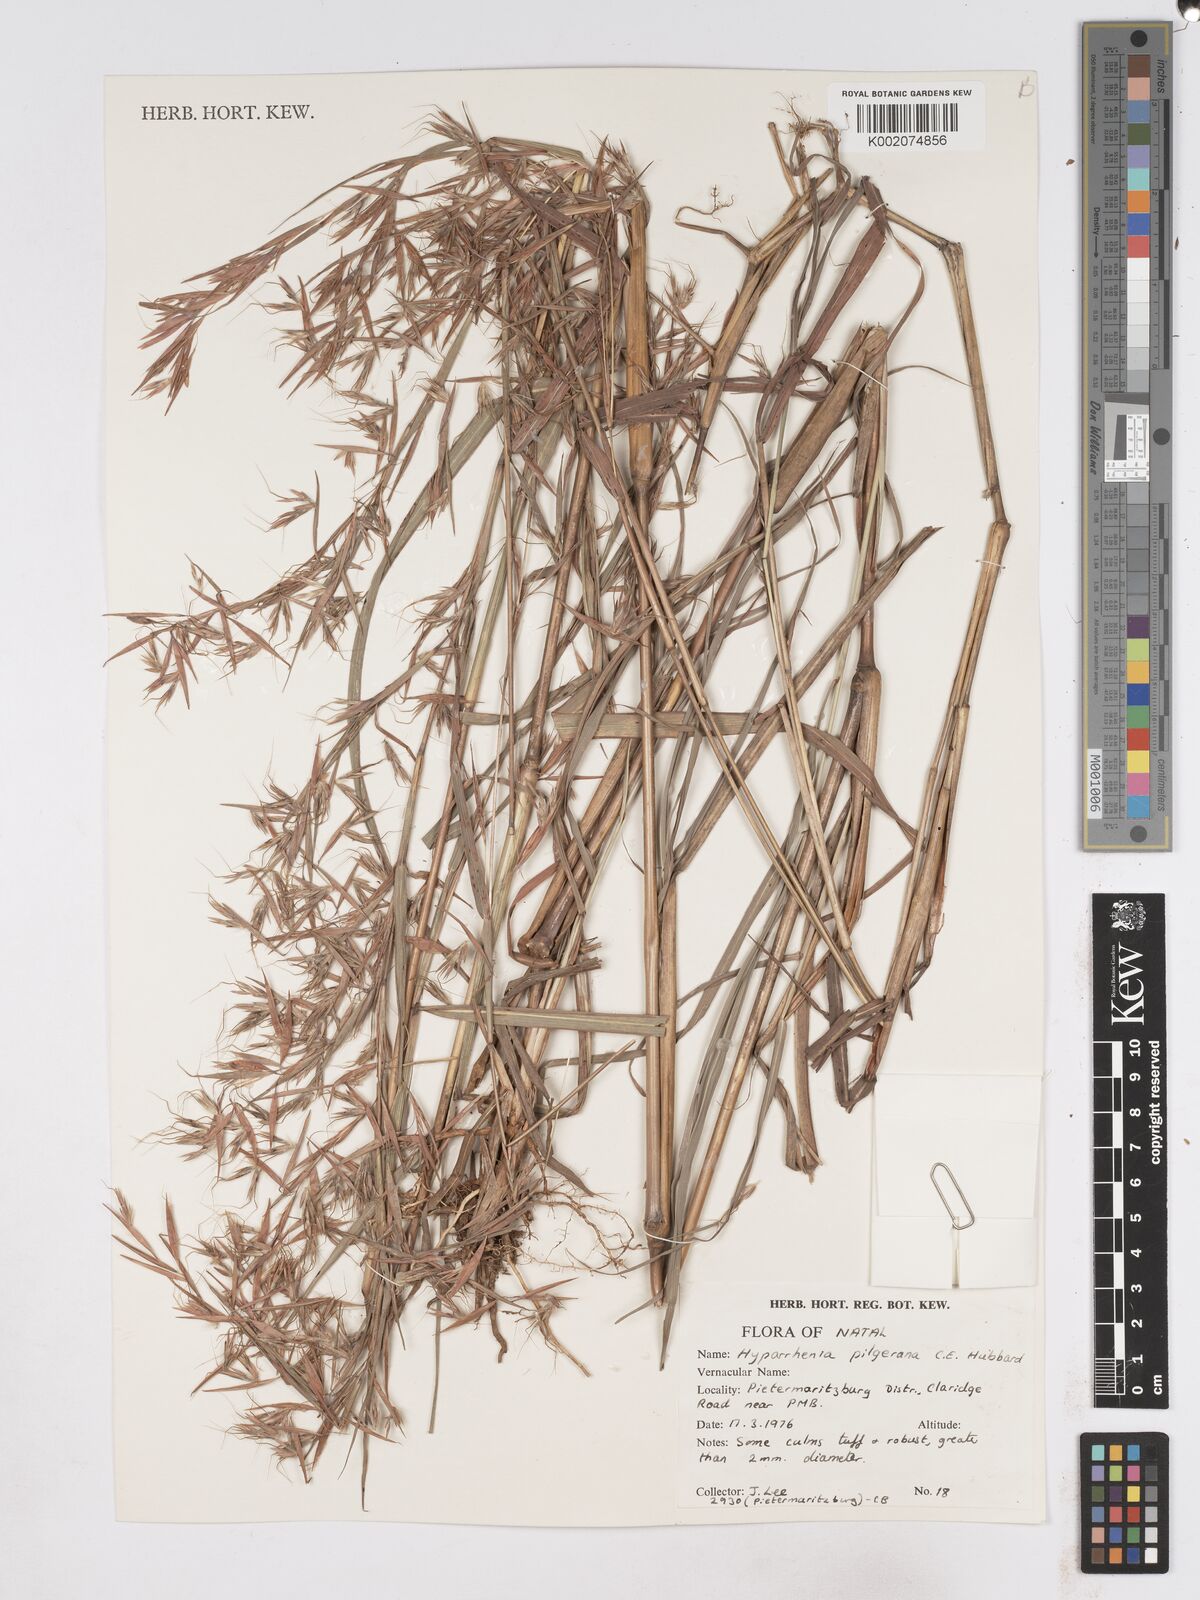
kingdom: Plantae
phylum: Tracheophyta
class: Liliopsida
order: Poales
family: Poaceae
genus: Hyparrhenia
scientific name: Hyparrhenia pilgeriana
